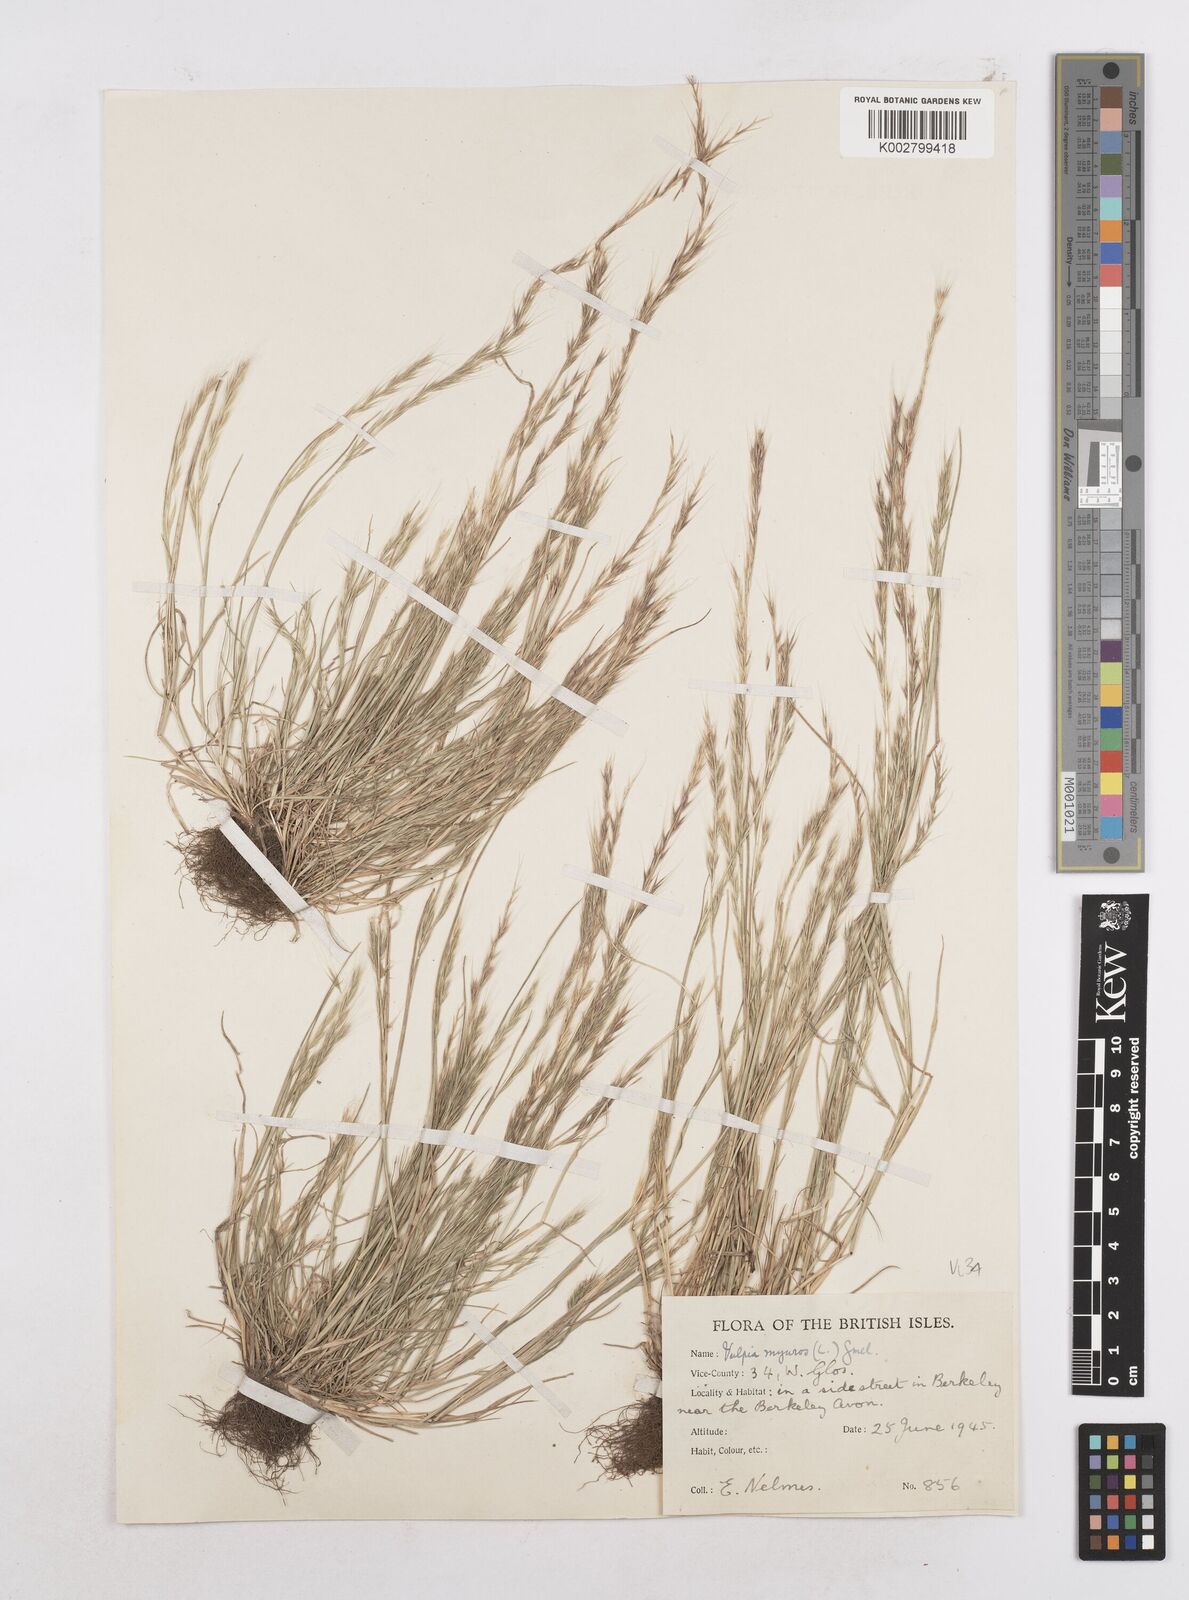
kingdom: Plantae
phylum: Tracheophyta
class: Liliopsida
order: Poales
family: Poaceae
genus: Festuca
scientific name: Festuca myuros
